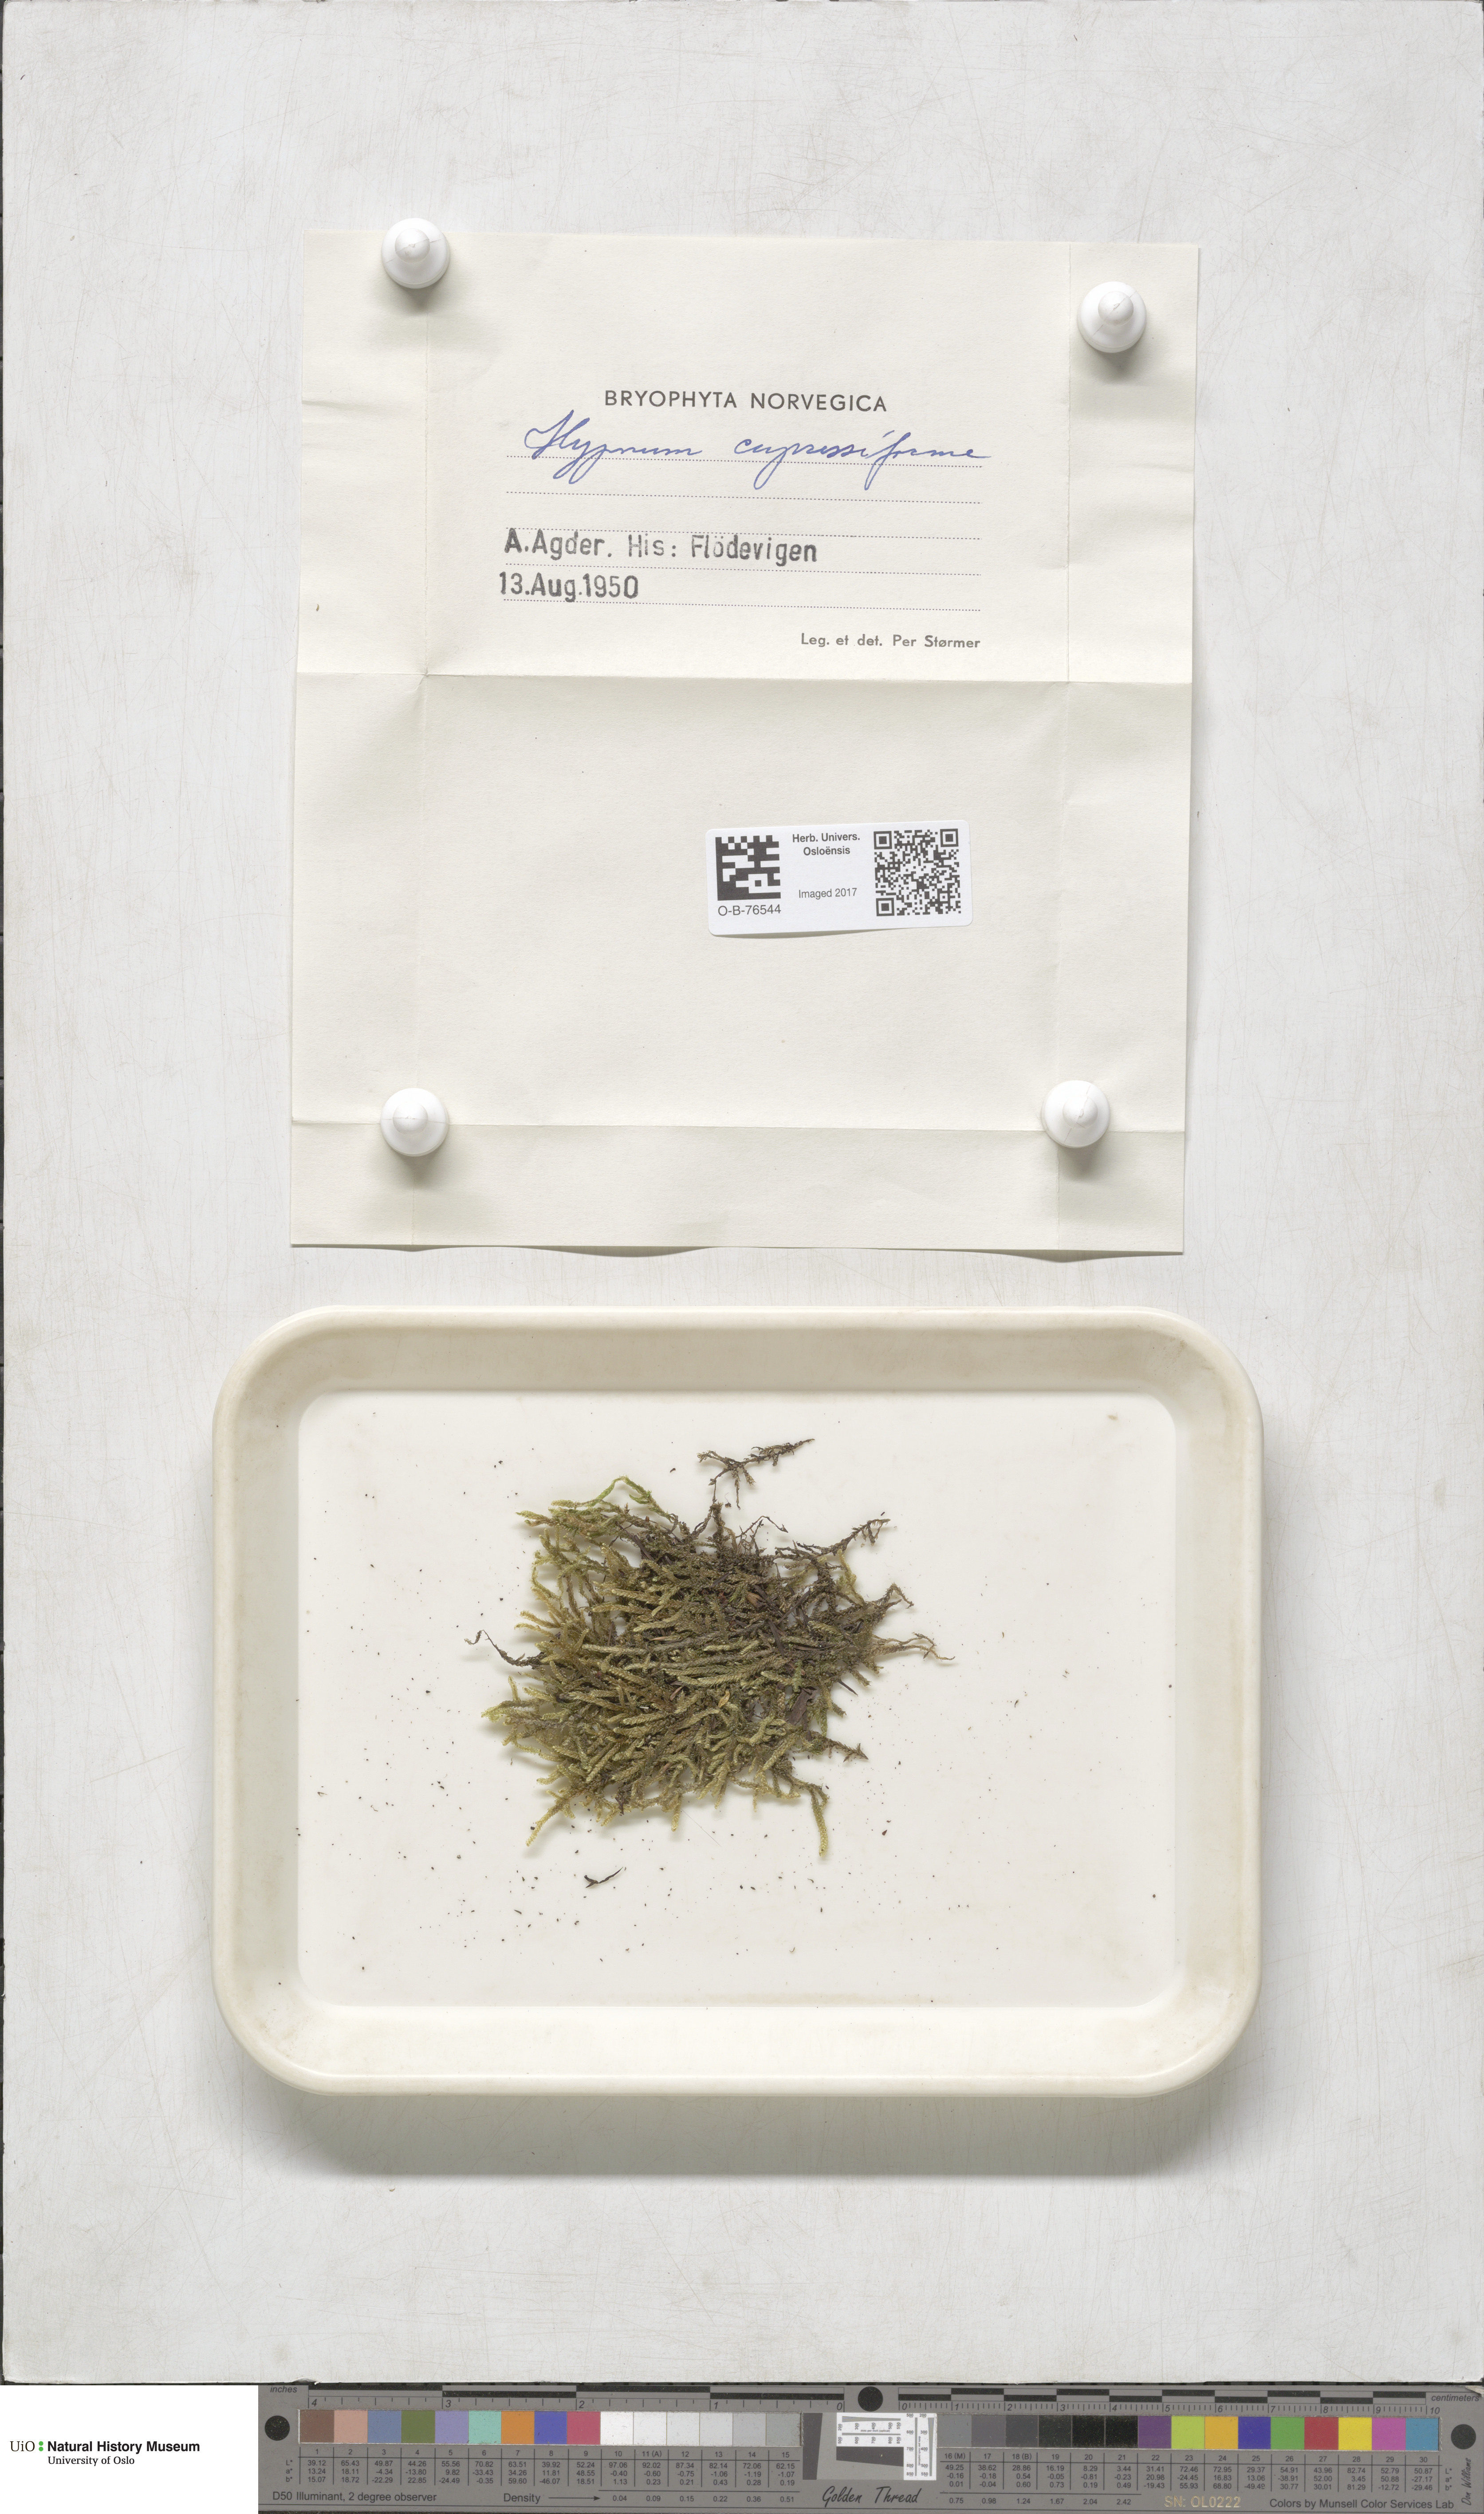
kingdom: Plantae
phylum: Bryophyta
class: Bryopsida
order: Hypnales
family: Hypnaceae
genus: Hypnum
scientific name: Hypnum cupressiforme
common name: Cypress-leaved plait-moss
